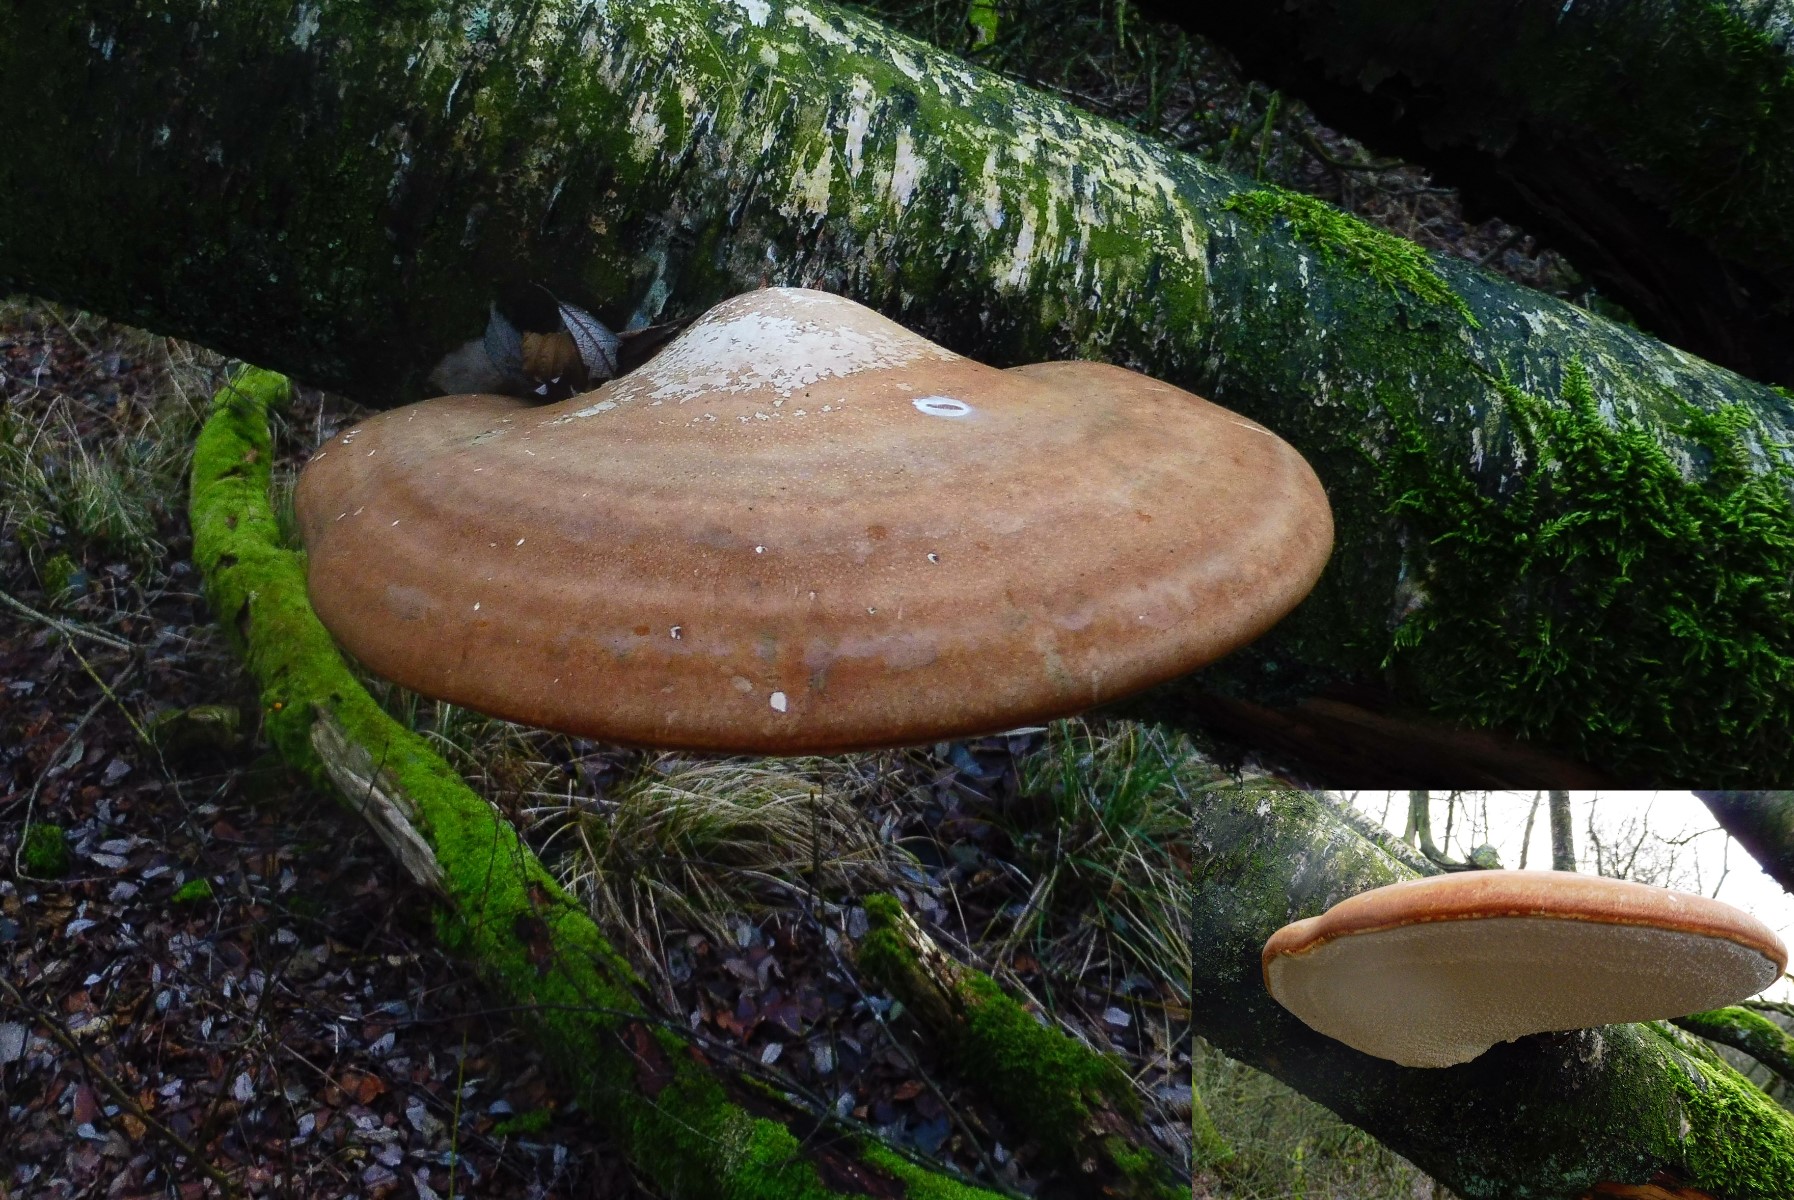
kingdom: Fungi
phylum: Basidiomycota
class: Agaricomycetes
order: Polyporales
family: Fomitopsidaceae
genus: Fomitopsis
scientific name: Fomitopsis betulina
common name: birkeporesvamp
